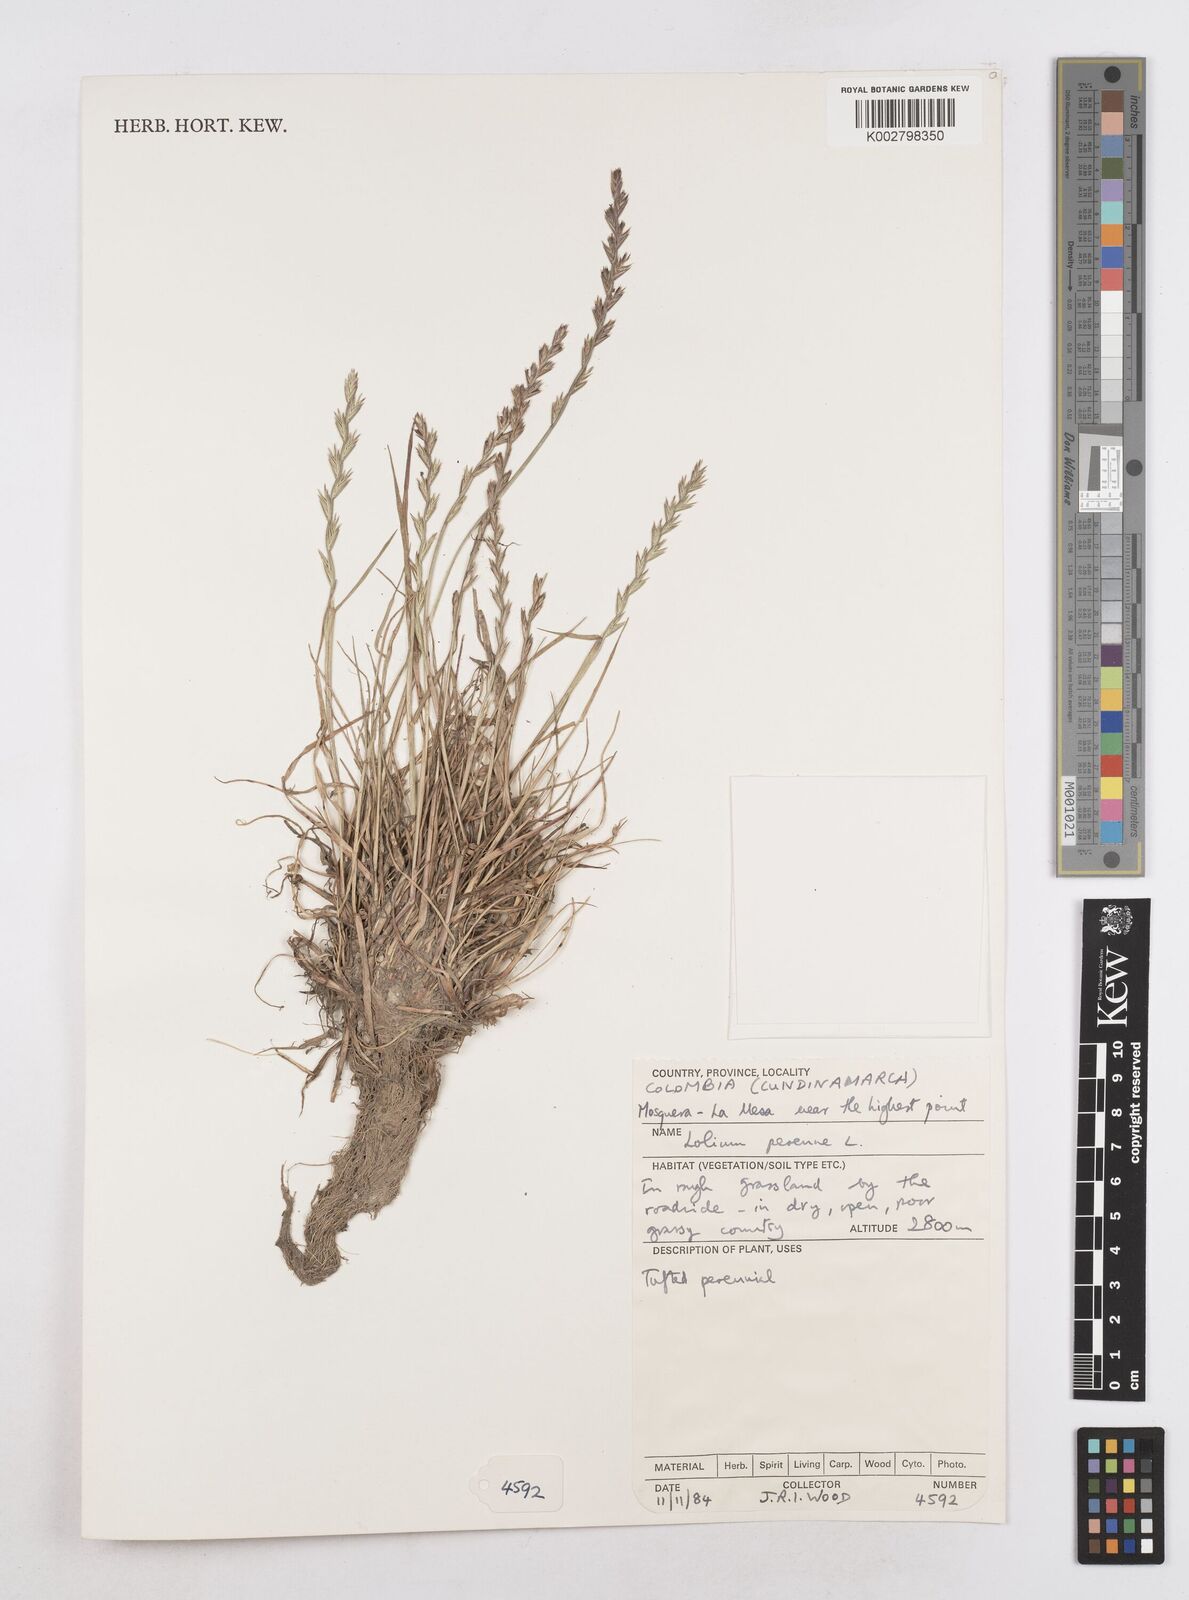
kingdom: Plantae
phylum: Tracheophyta
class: Liliopsida
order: Poales
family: Poaceae
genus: Lolium
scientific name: Lolium perenne
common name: Perennial ryegrass
